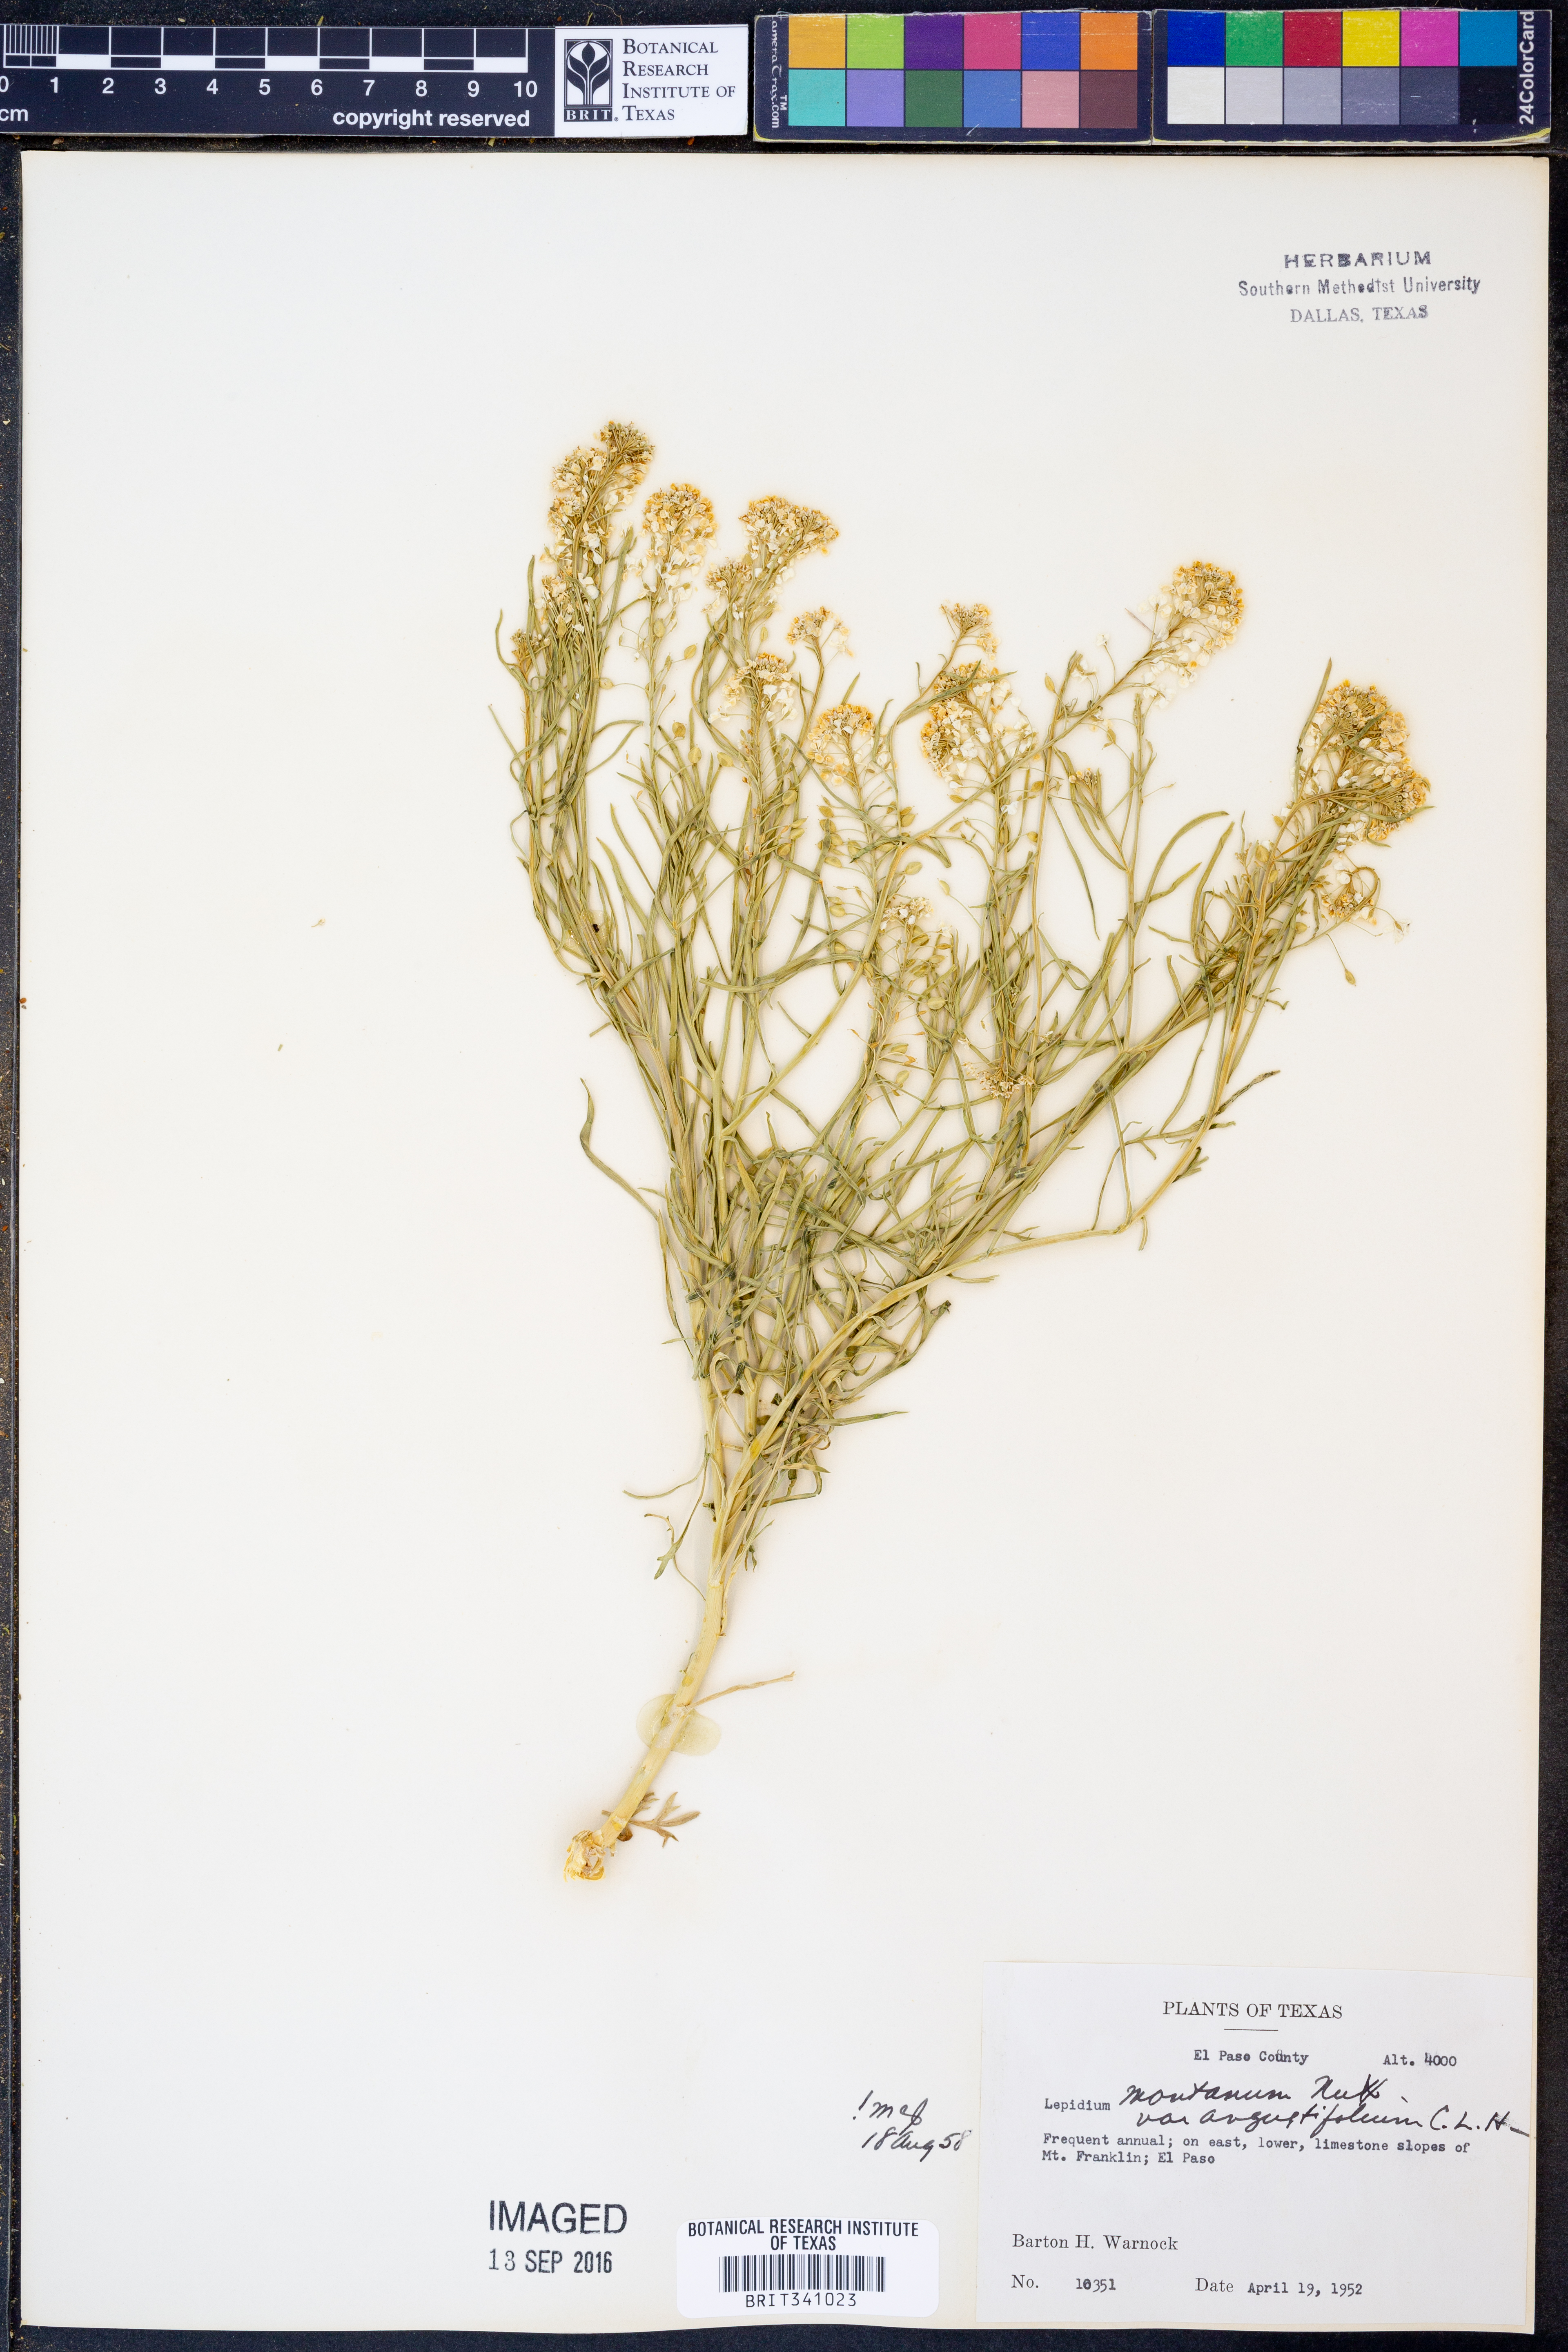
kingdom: Plantae
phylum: Tracheophyta
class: Magnoliopsida
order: Brassicales
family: Brassicaceae
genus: Lepidium
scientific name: Lepidium alyssoides
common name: Mesa pepperweed
